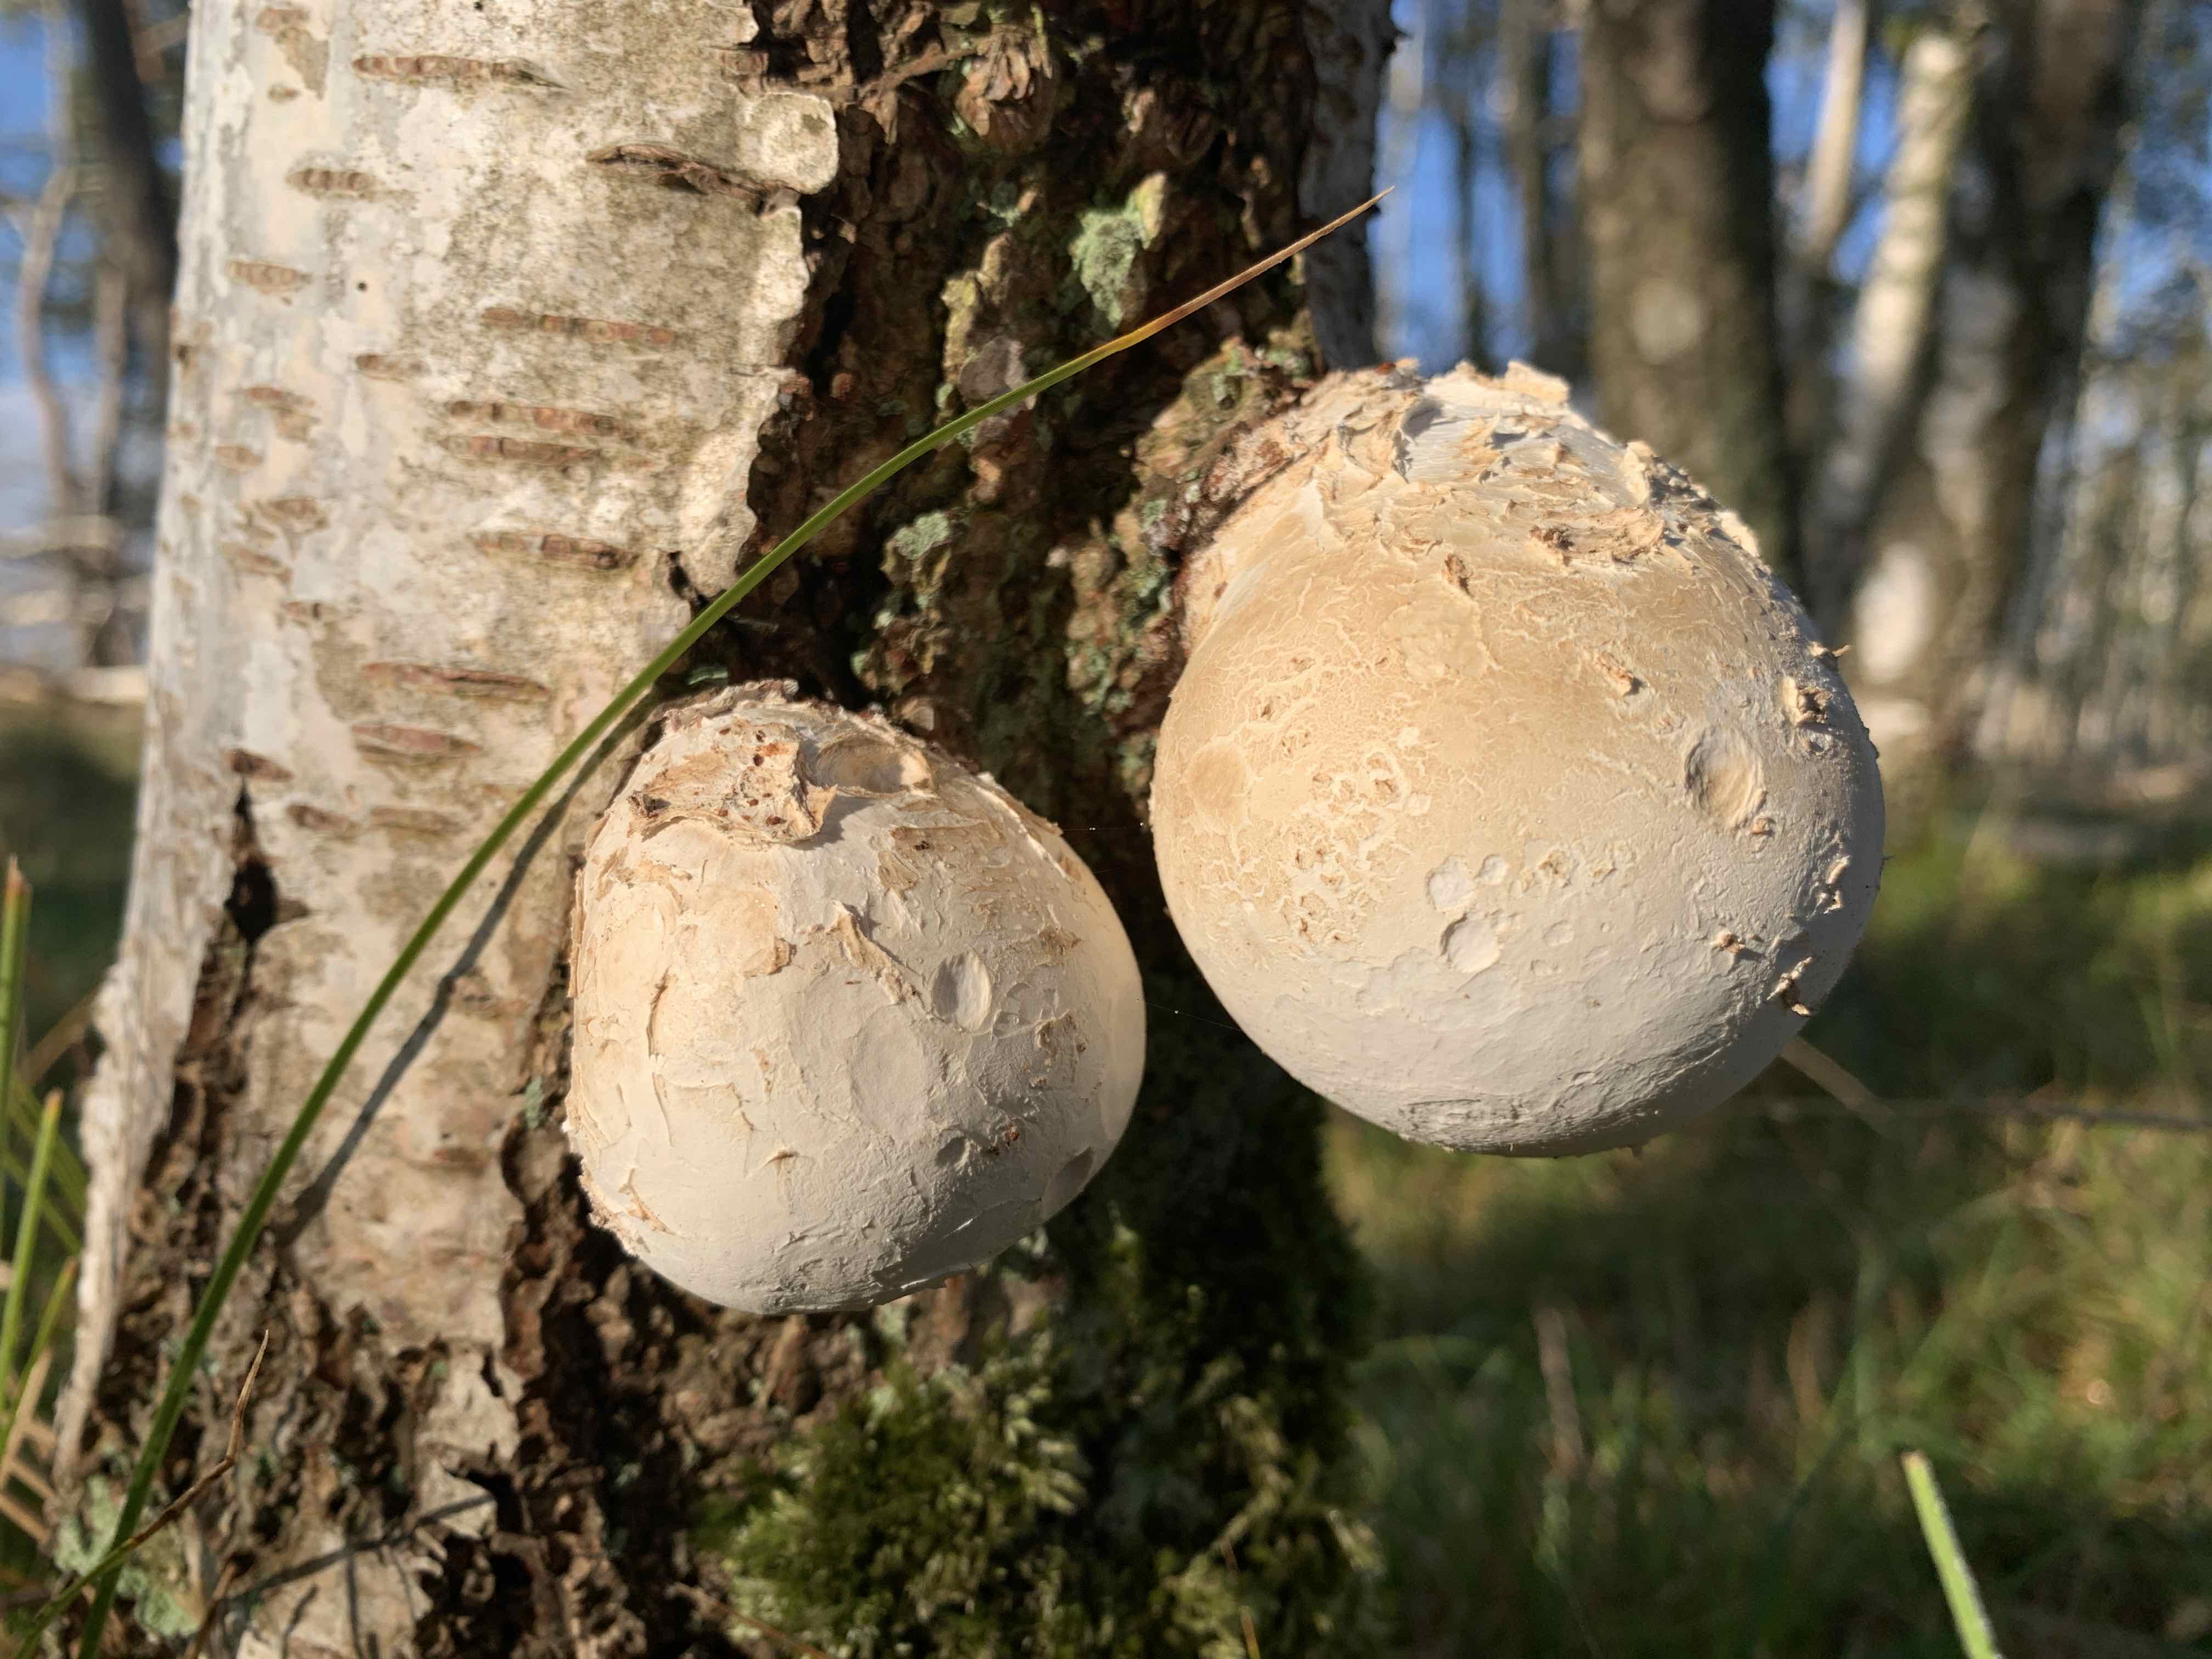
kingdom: Fungi
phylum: Basidiomycota
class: Agaricomycetes
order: Polyporales
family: Fomitopsidaceae
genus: Fomitopsis
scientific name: Fomitopsis betulina
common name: birkeporesvamp
